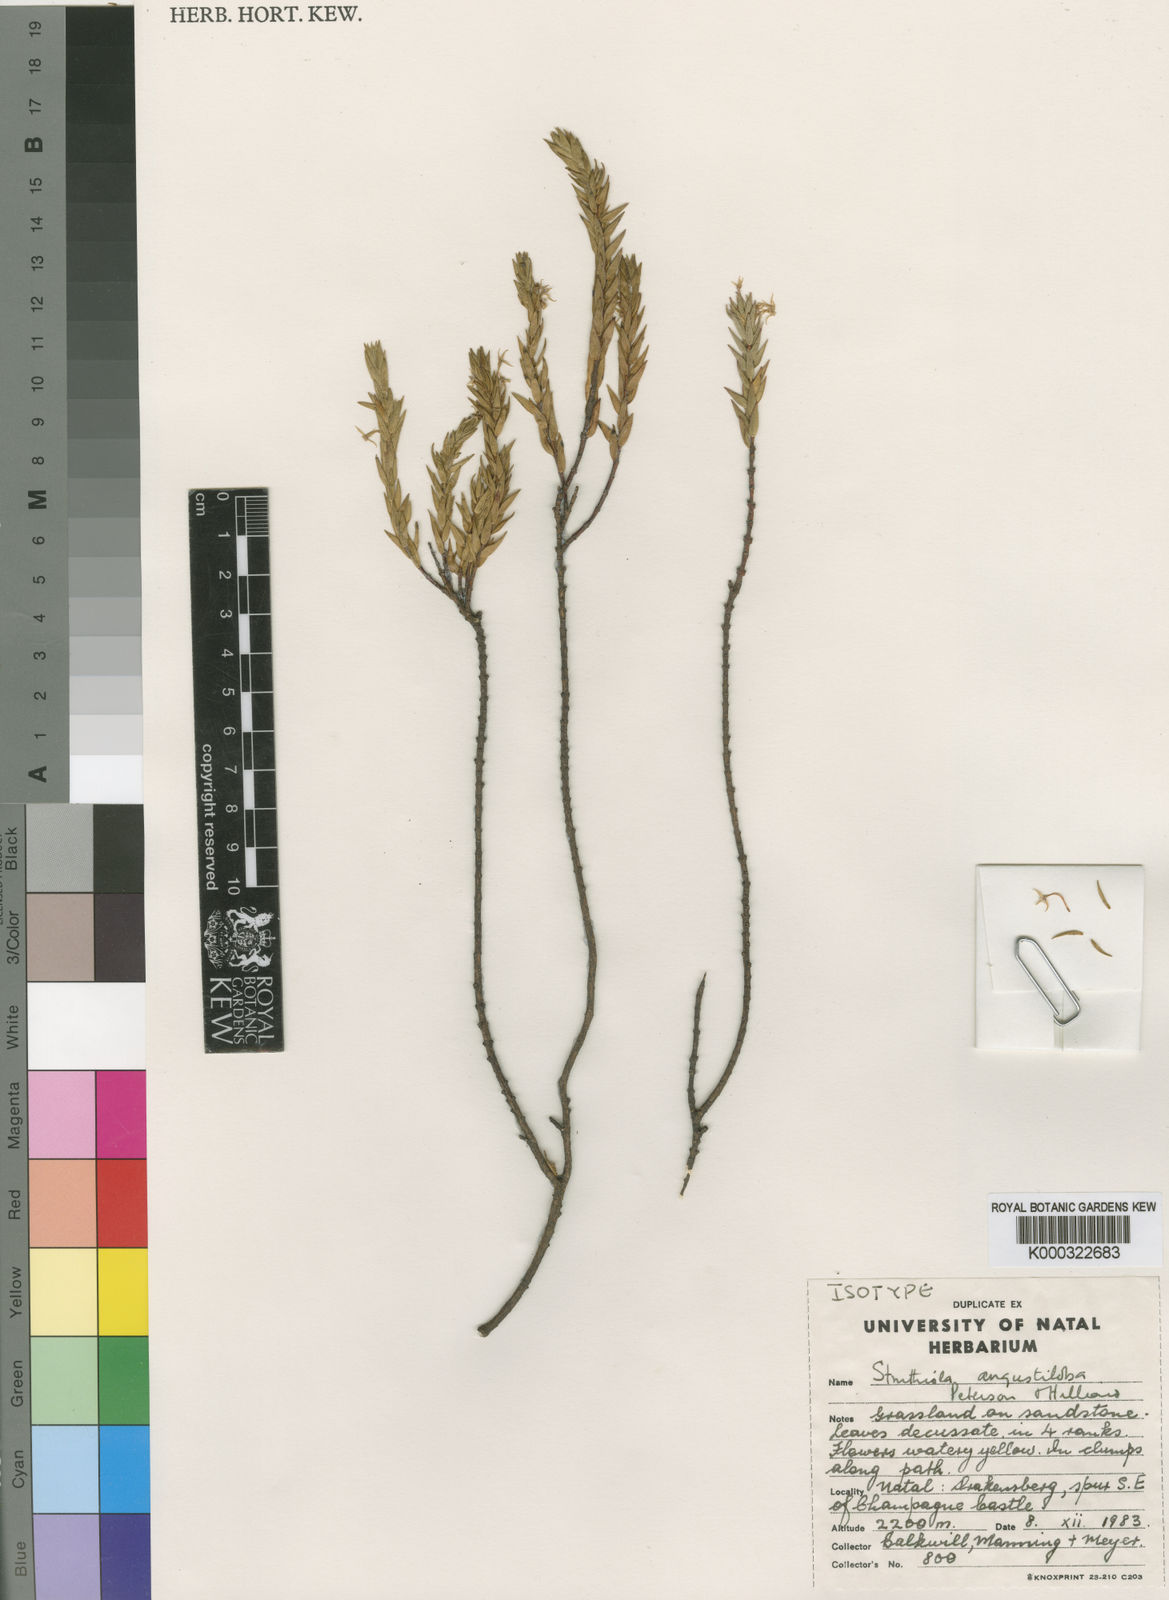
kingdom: Plantae
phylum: Tracheophyta
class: Magnoliopsida
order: Malvales
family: Thymelaeaceae
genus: Struthiola
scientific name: Struthiola angustiloba
